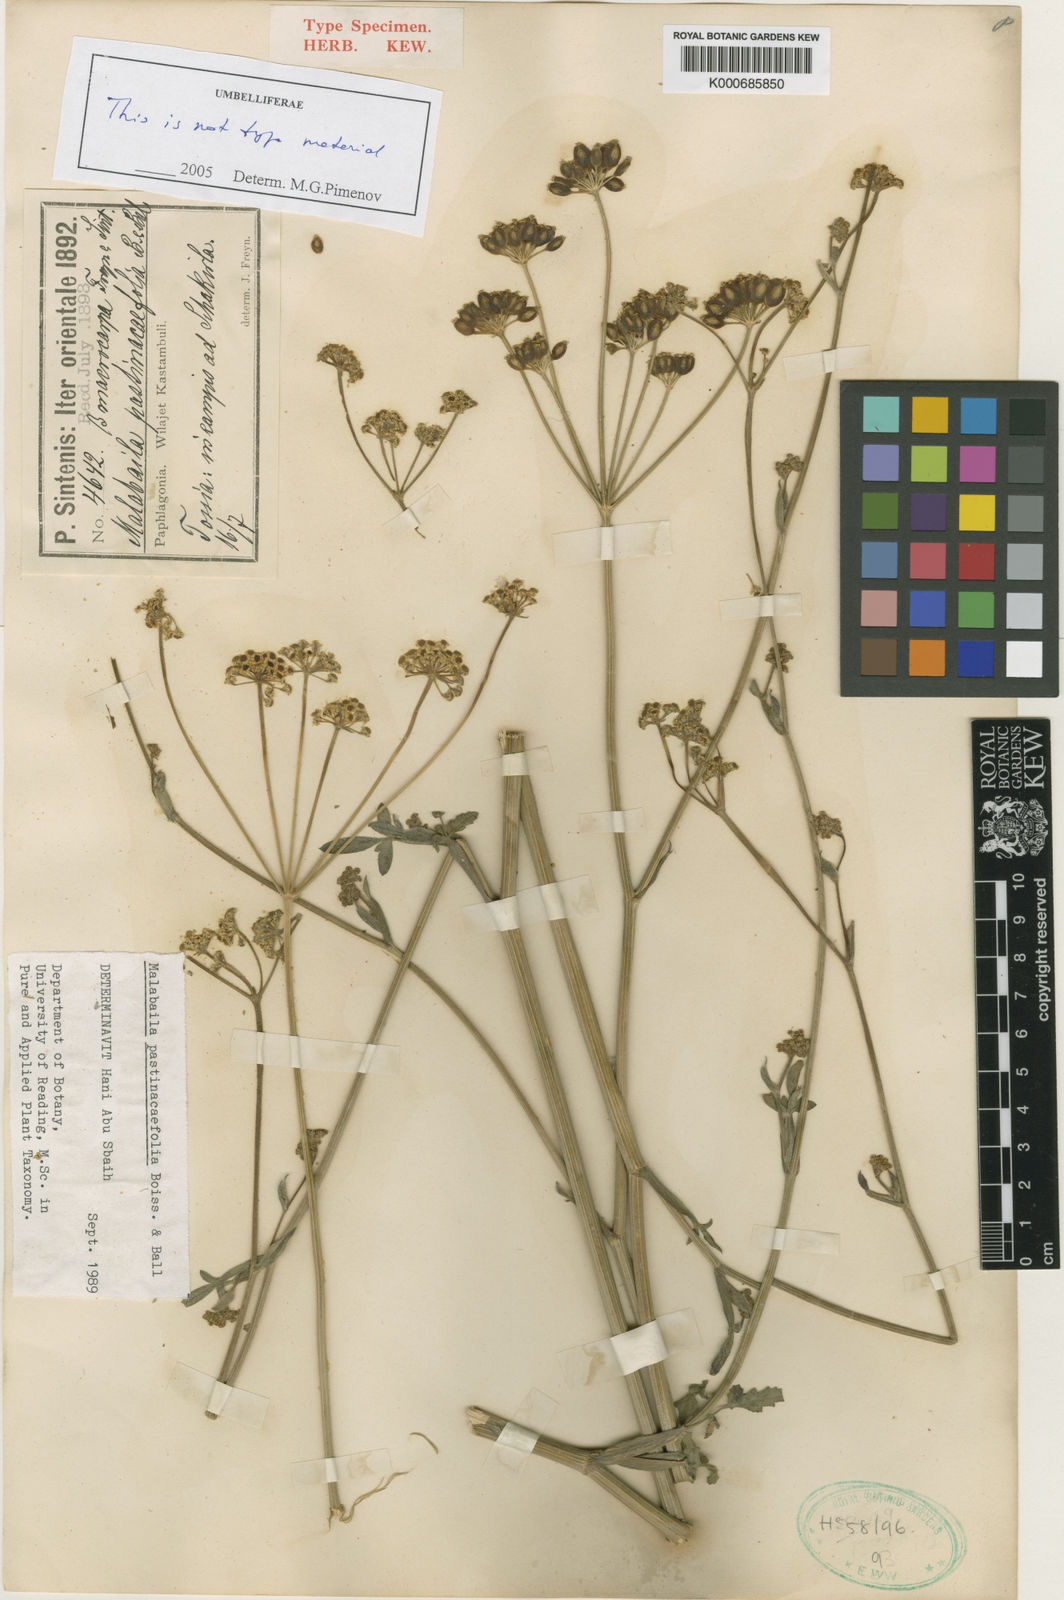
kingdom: Plantae
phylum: Tracheophyta
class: Magnoliopsida
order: Apiales
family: Apiaceae
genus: Pastinaca
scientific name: Pastinaca
